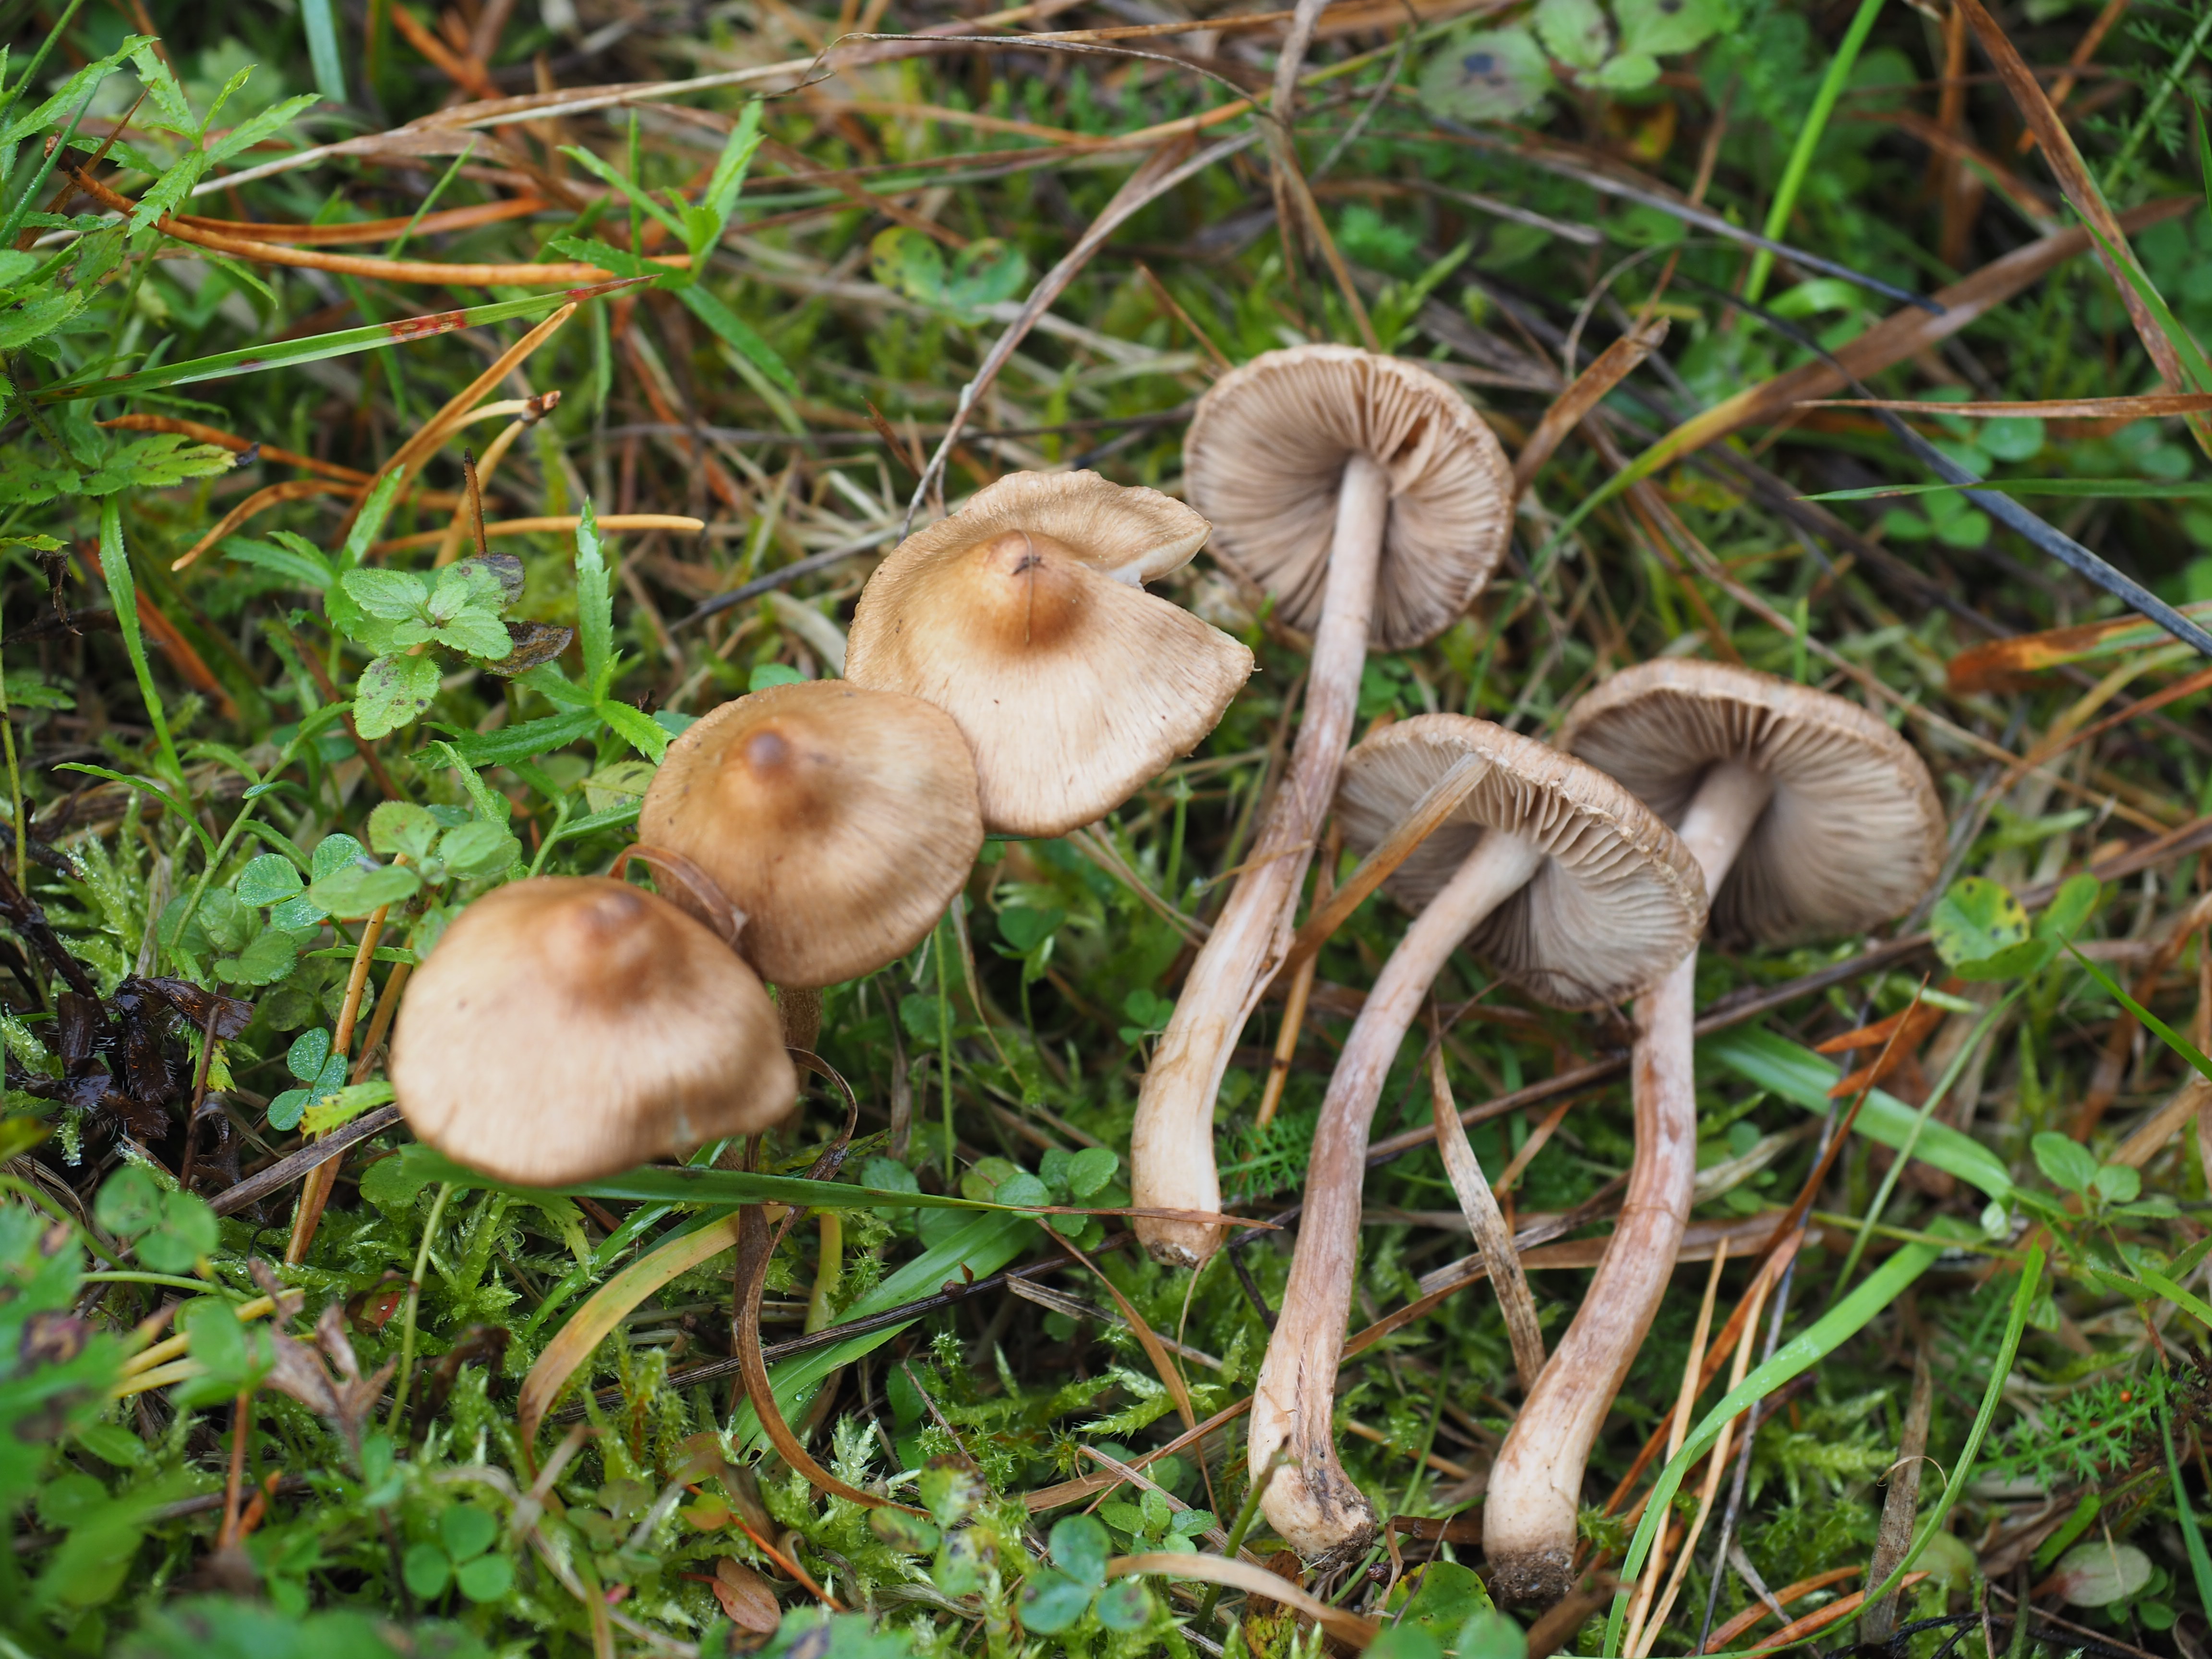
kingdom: Fungi
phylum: Basidiomycota
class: Agaricomycetes
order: Agaricales
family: Inocybaceae
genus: Inocybe
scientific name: Inocybe proximella
